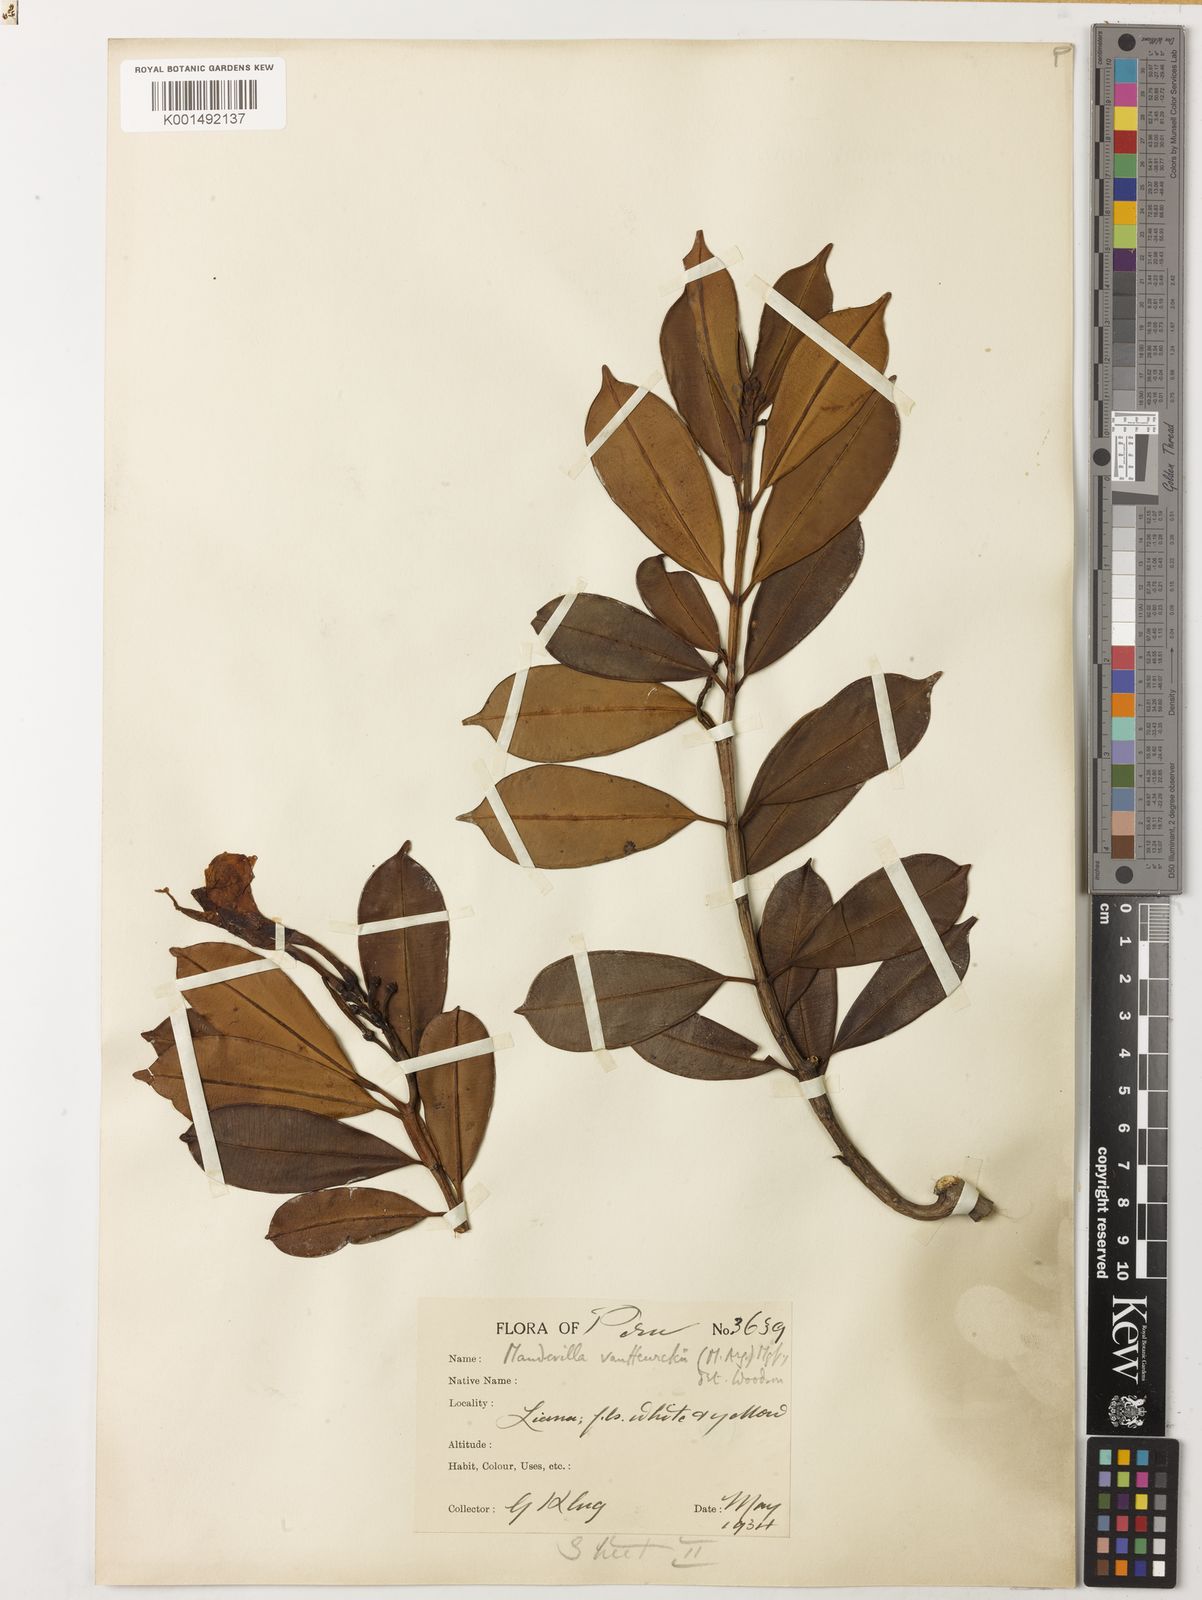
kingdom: Plantae
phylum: Tracheophyta
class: Magnoliopsida
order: Gentianales
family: Apocynaceae
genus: Mandevilla
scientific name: Mandevilla vanheurckii
